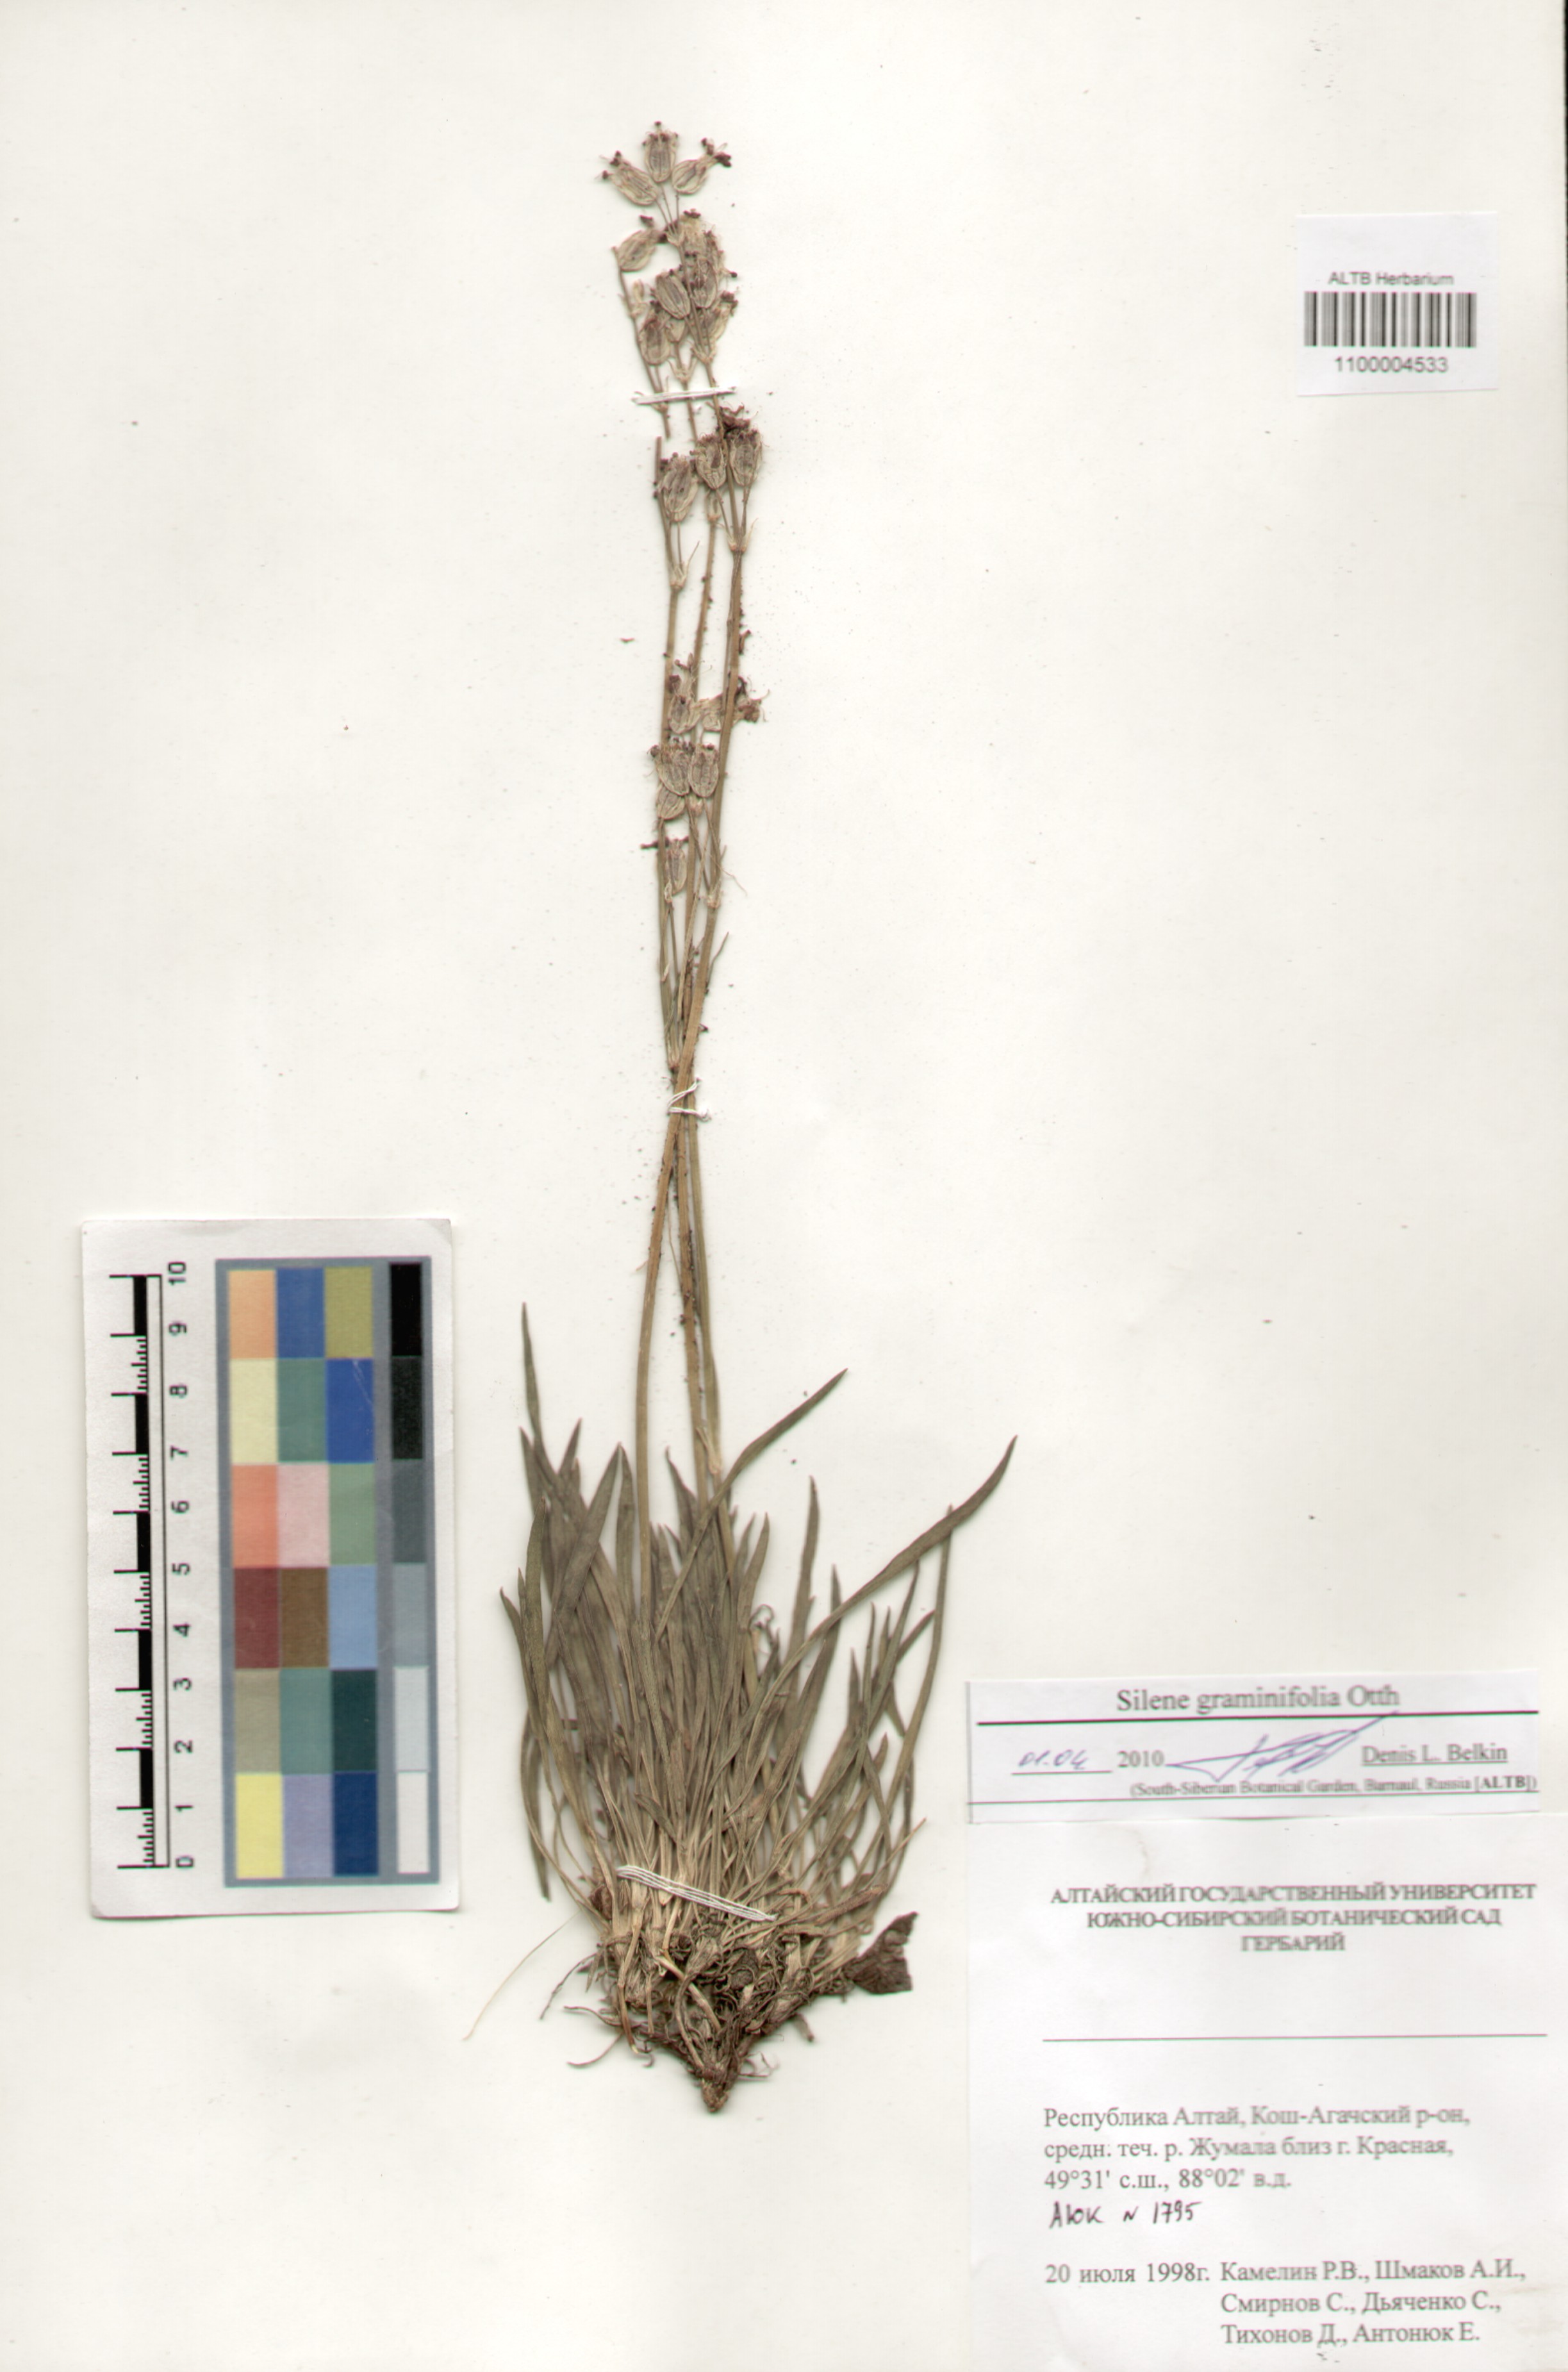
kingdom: Plantae
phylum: Tracheophyta
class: Magnoliopsida
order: Caryophyllales
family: Caryophyllaceae
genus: Silene
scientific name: Silene graminifolia
